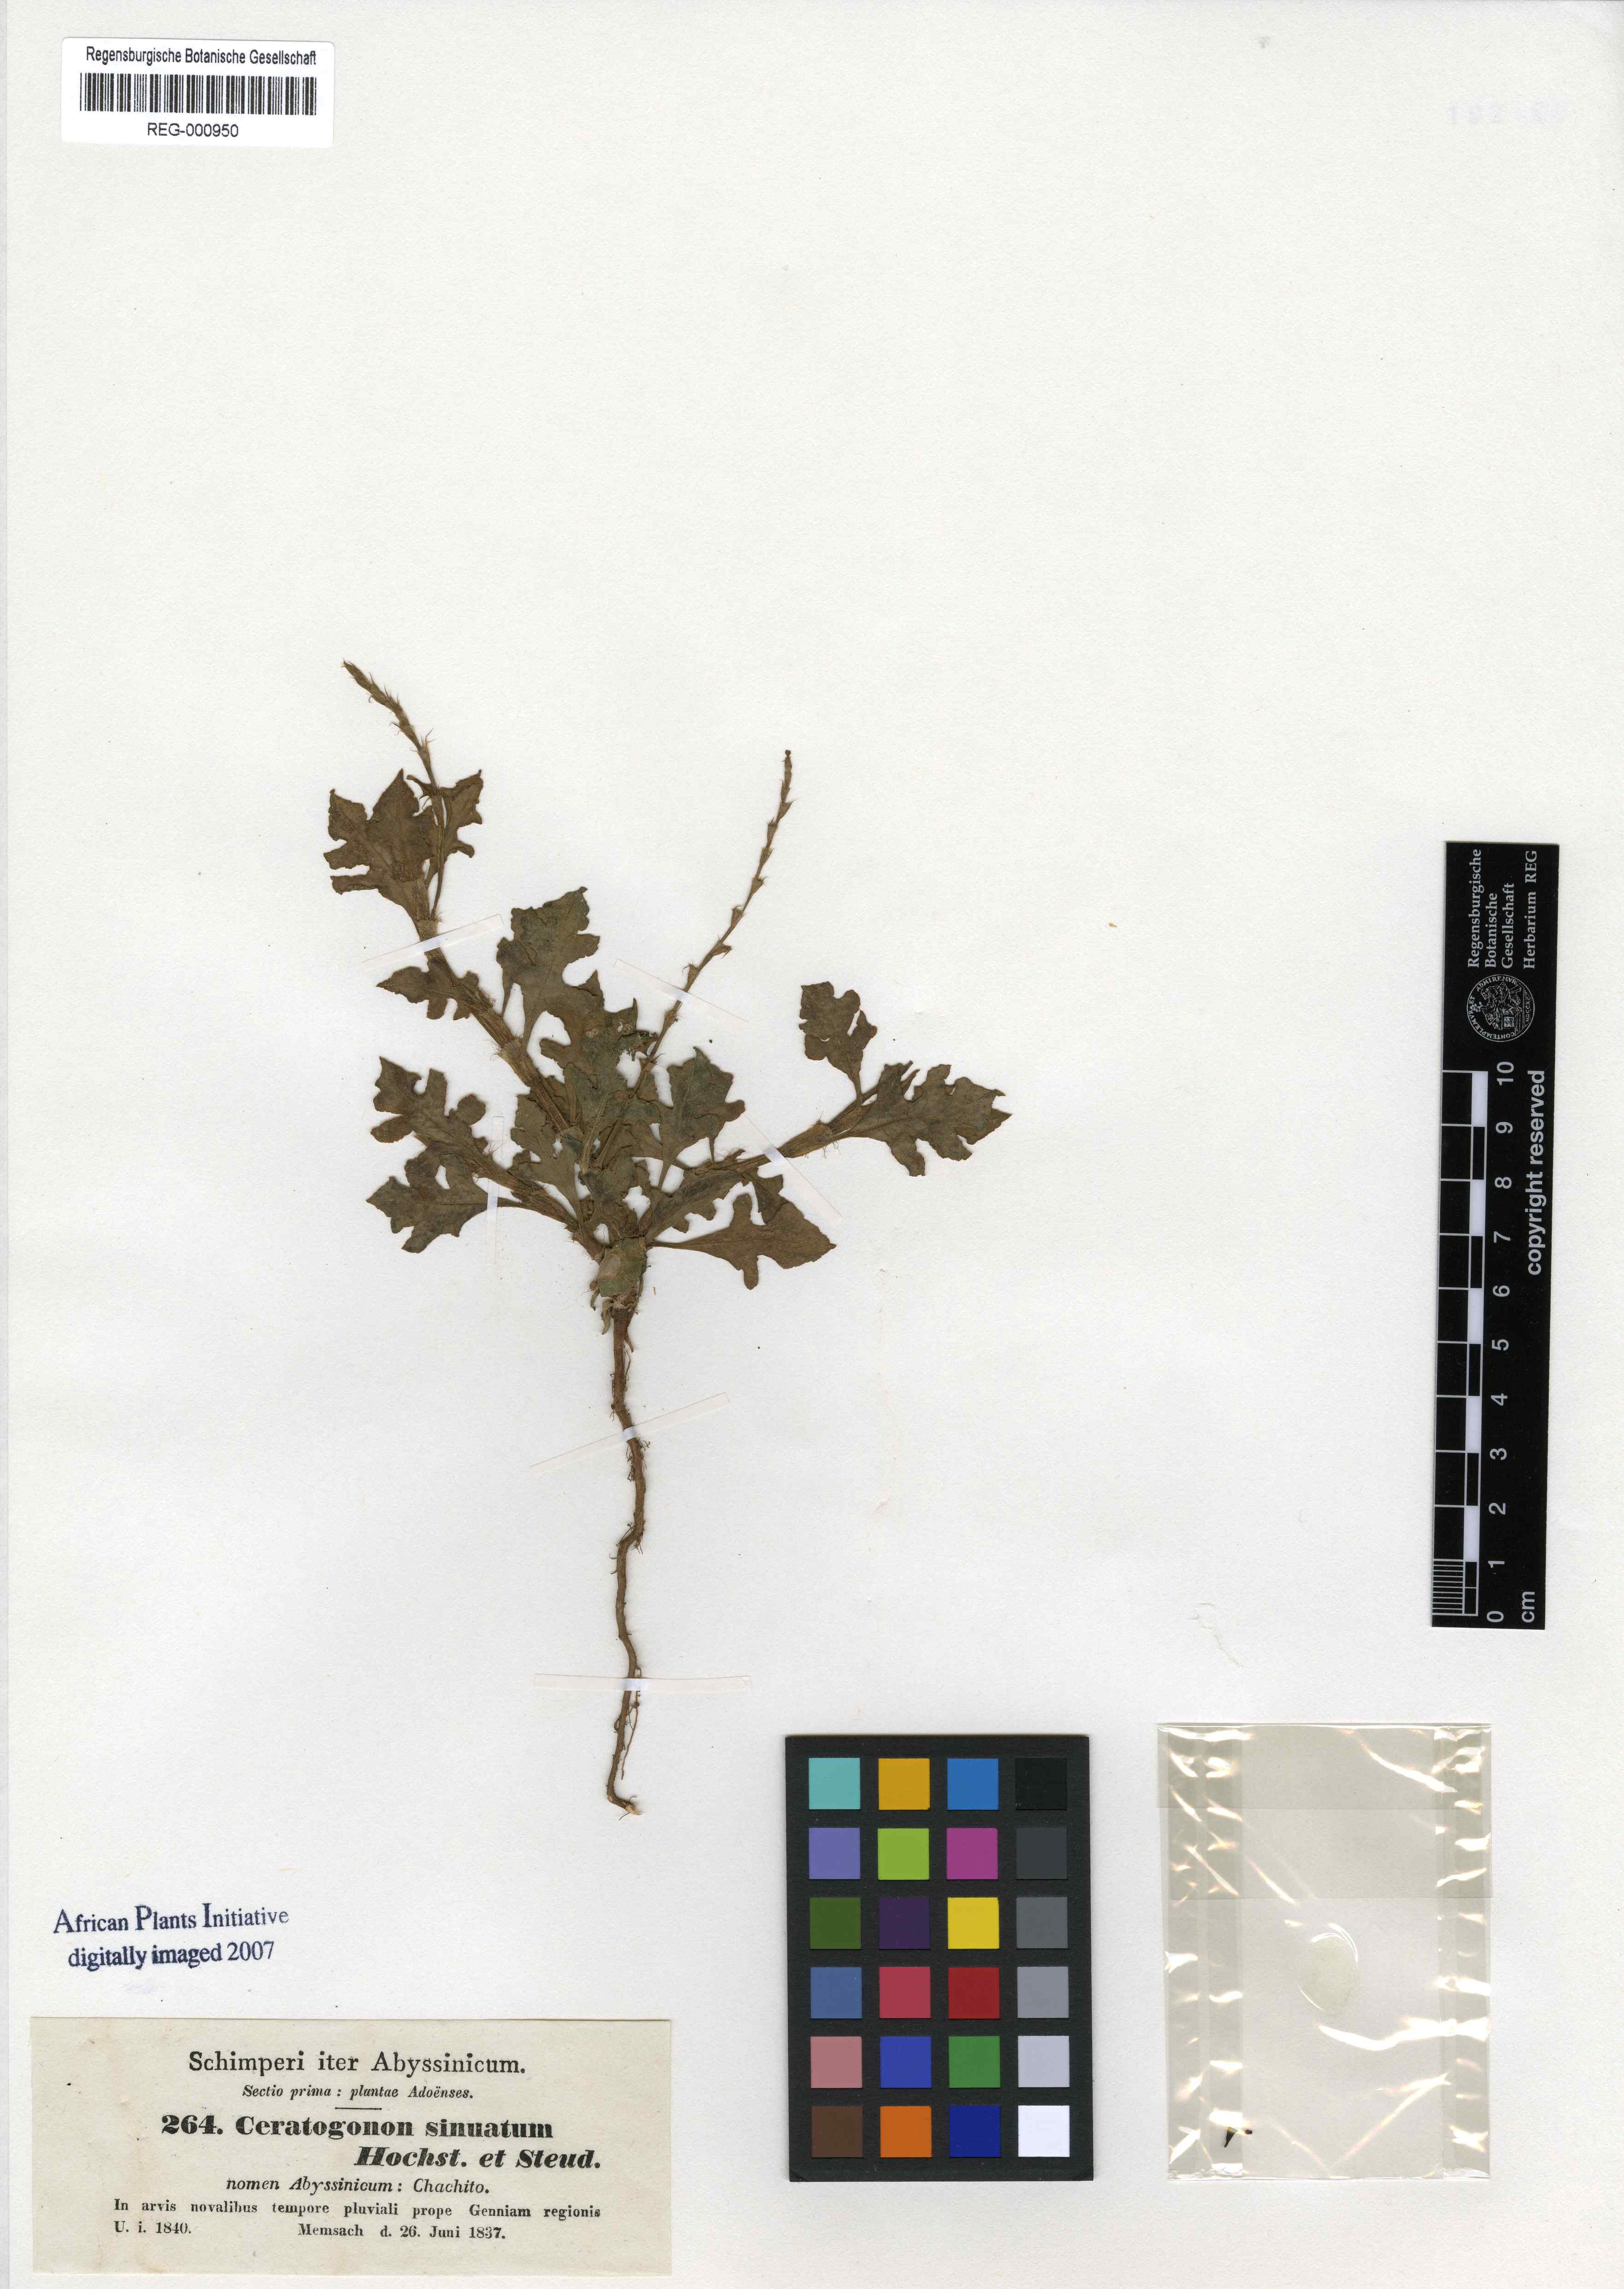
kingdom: Plantae
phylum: Tracheophyta
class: Magnoliopsida
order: Caryophyllales
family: Polygonaceae
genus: Oxygonum
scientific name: Oxygonum sinuatum
